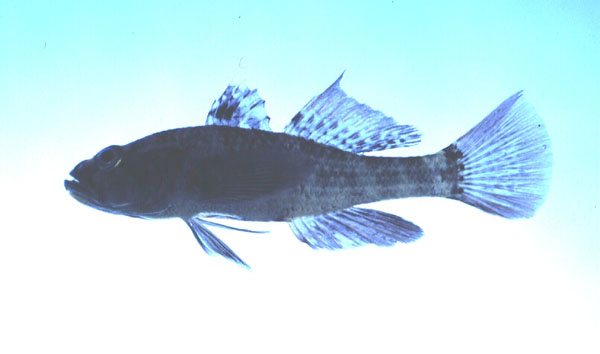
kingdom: Animalia
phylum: Chordata
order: Perciformes
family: Eleotridae
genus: Butis
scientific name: Butis koilomatodon
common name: Mud sleeper
